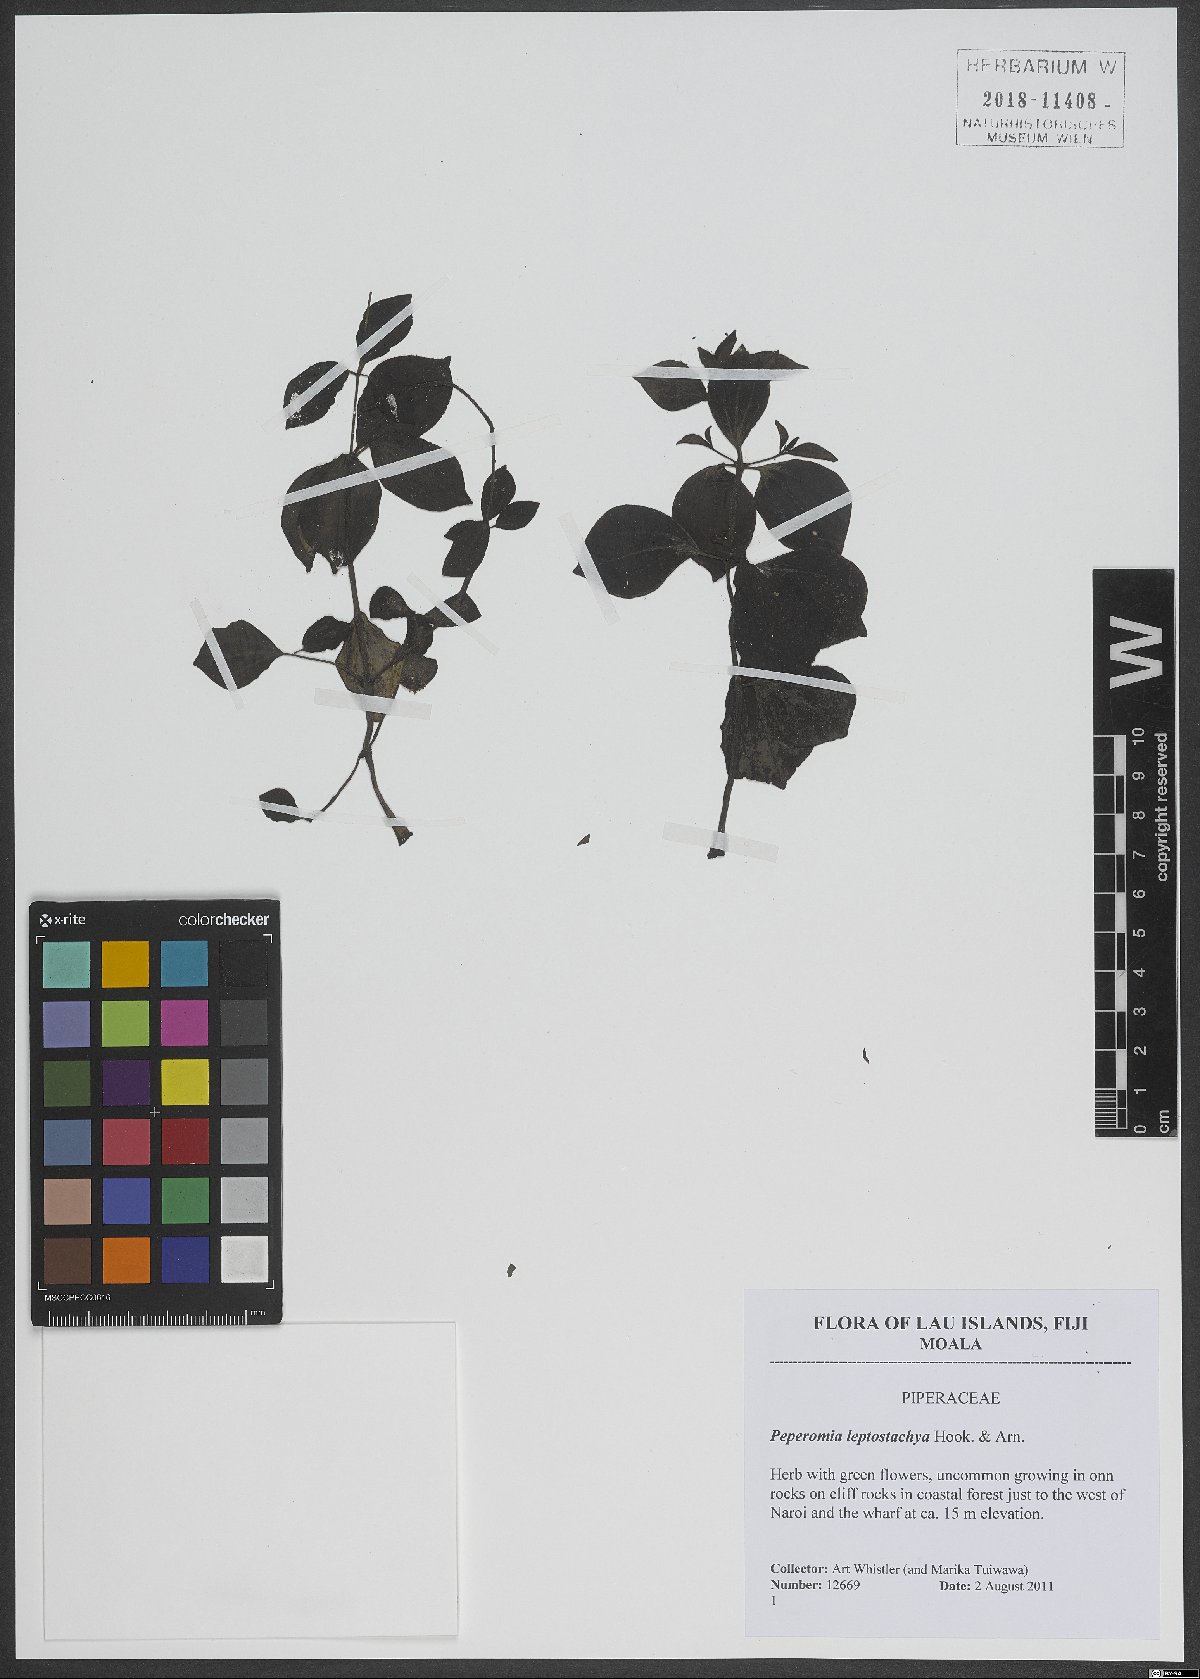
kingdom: Plantae
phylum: Tracheophyta
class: Magnoliopsida
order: Piperales
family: Piperaceae
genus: Peperomia
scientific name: Peperomia leptostachya
